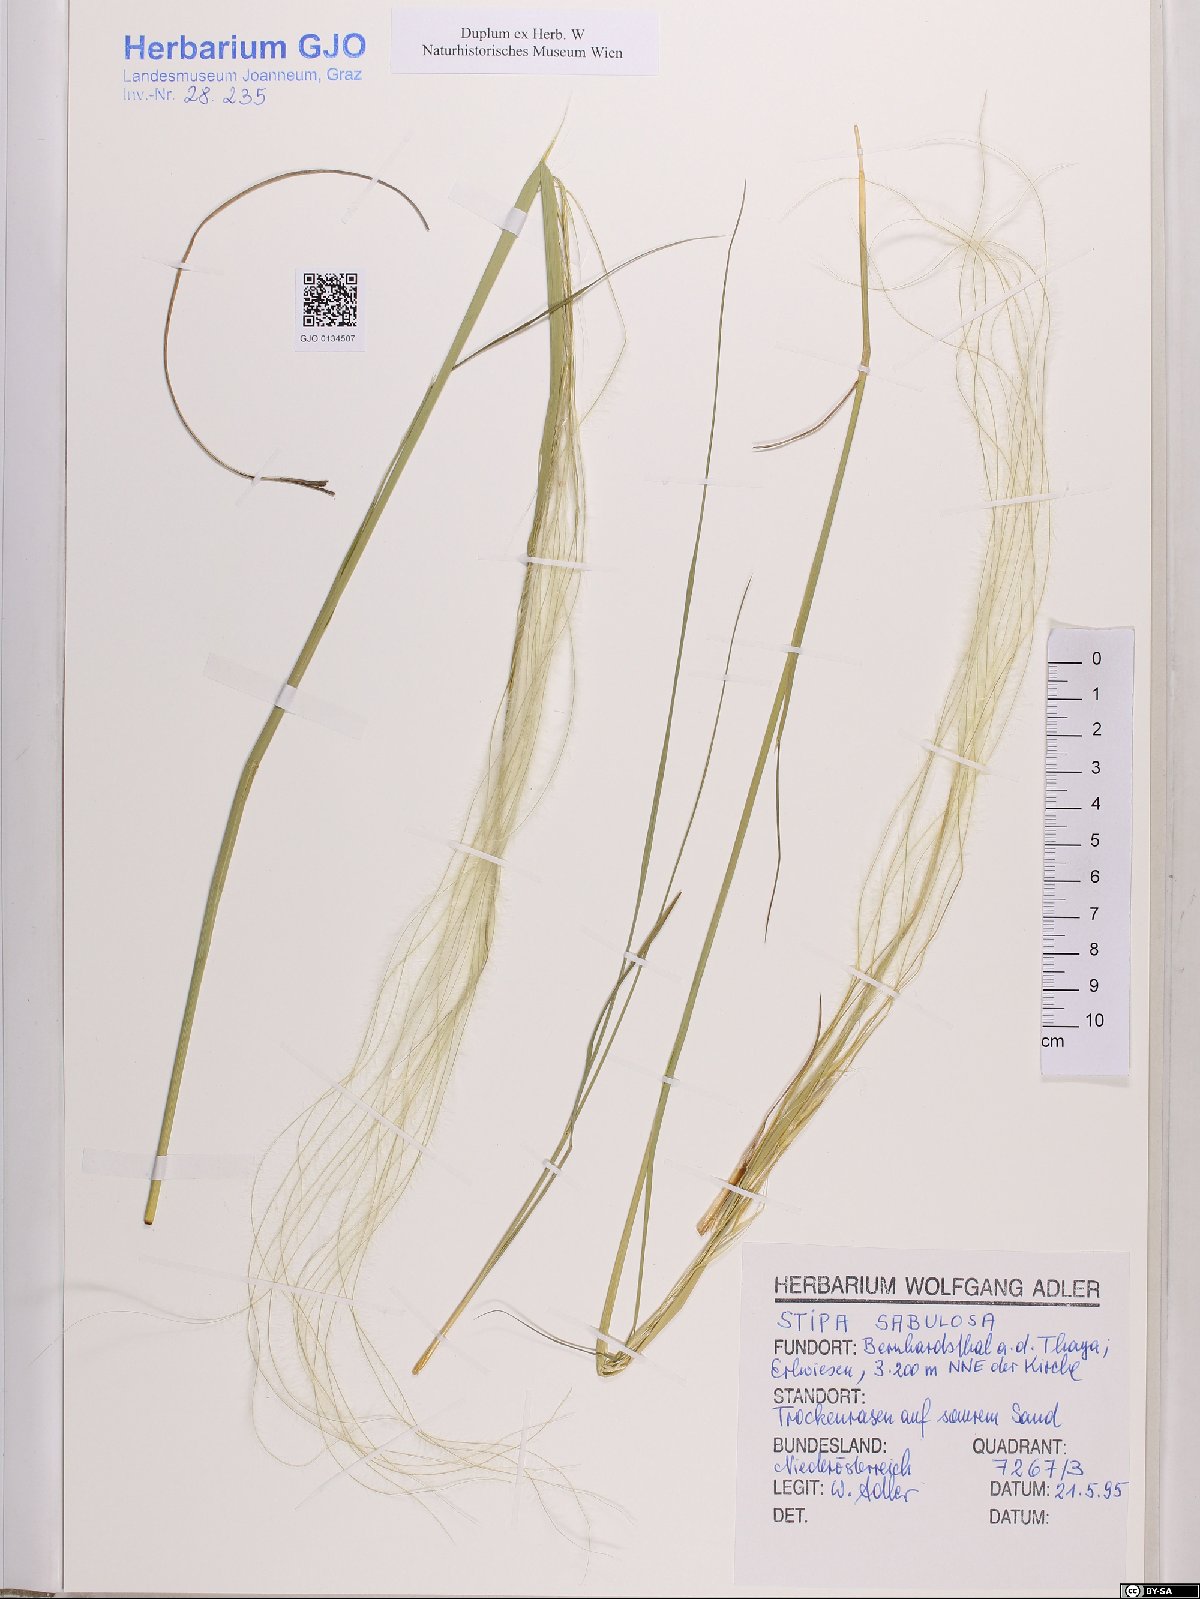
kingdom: Plantae
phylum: Tracheophyta
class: Liliopsida
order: Poales
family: Poaceae
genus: Stipa
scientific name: Stipa borysthenica
